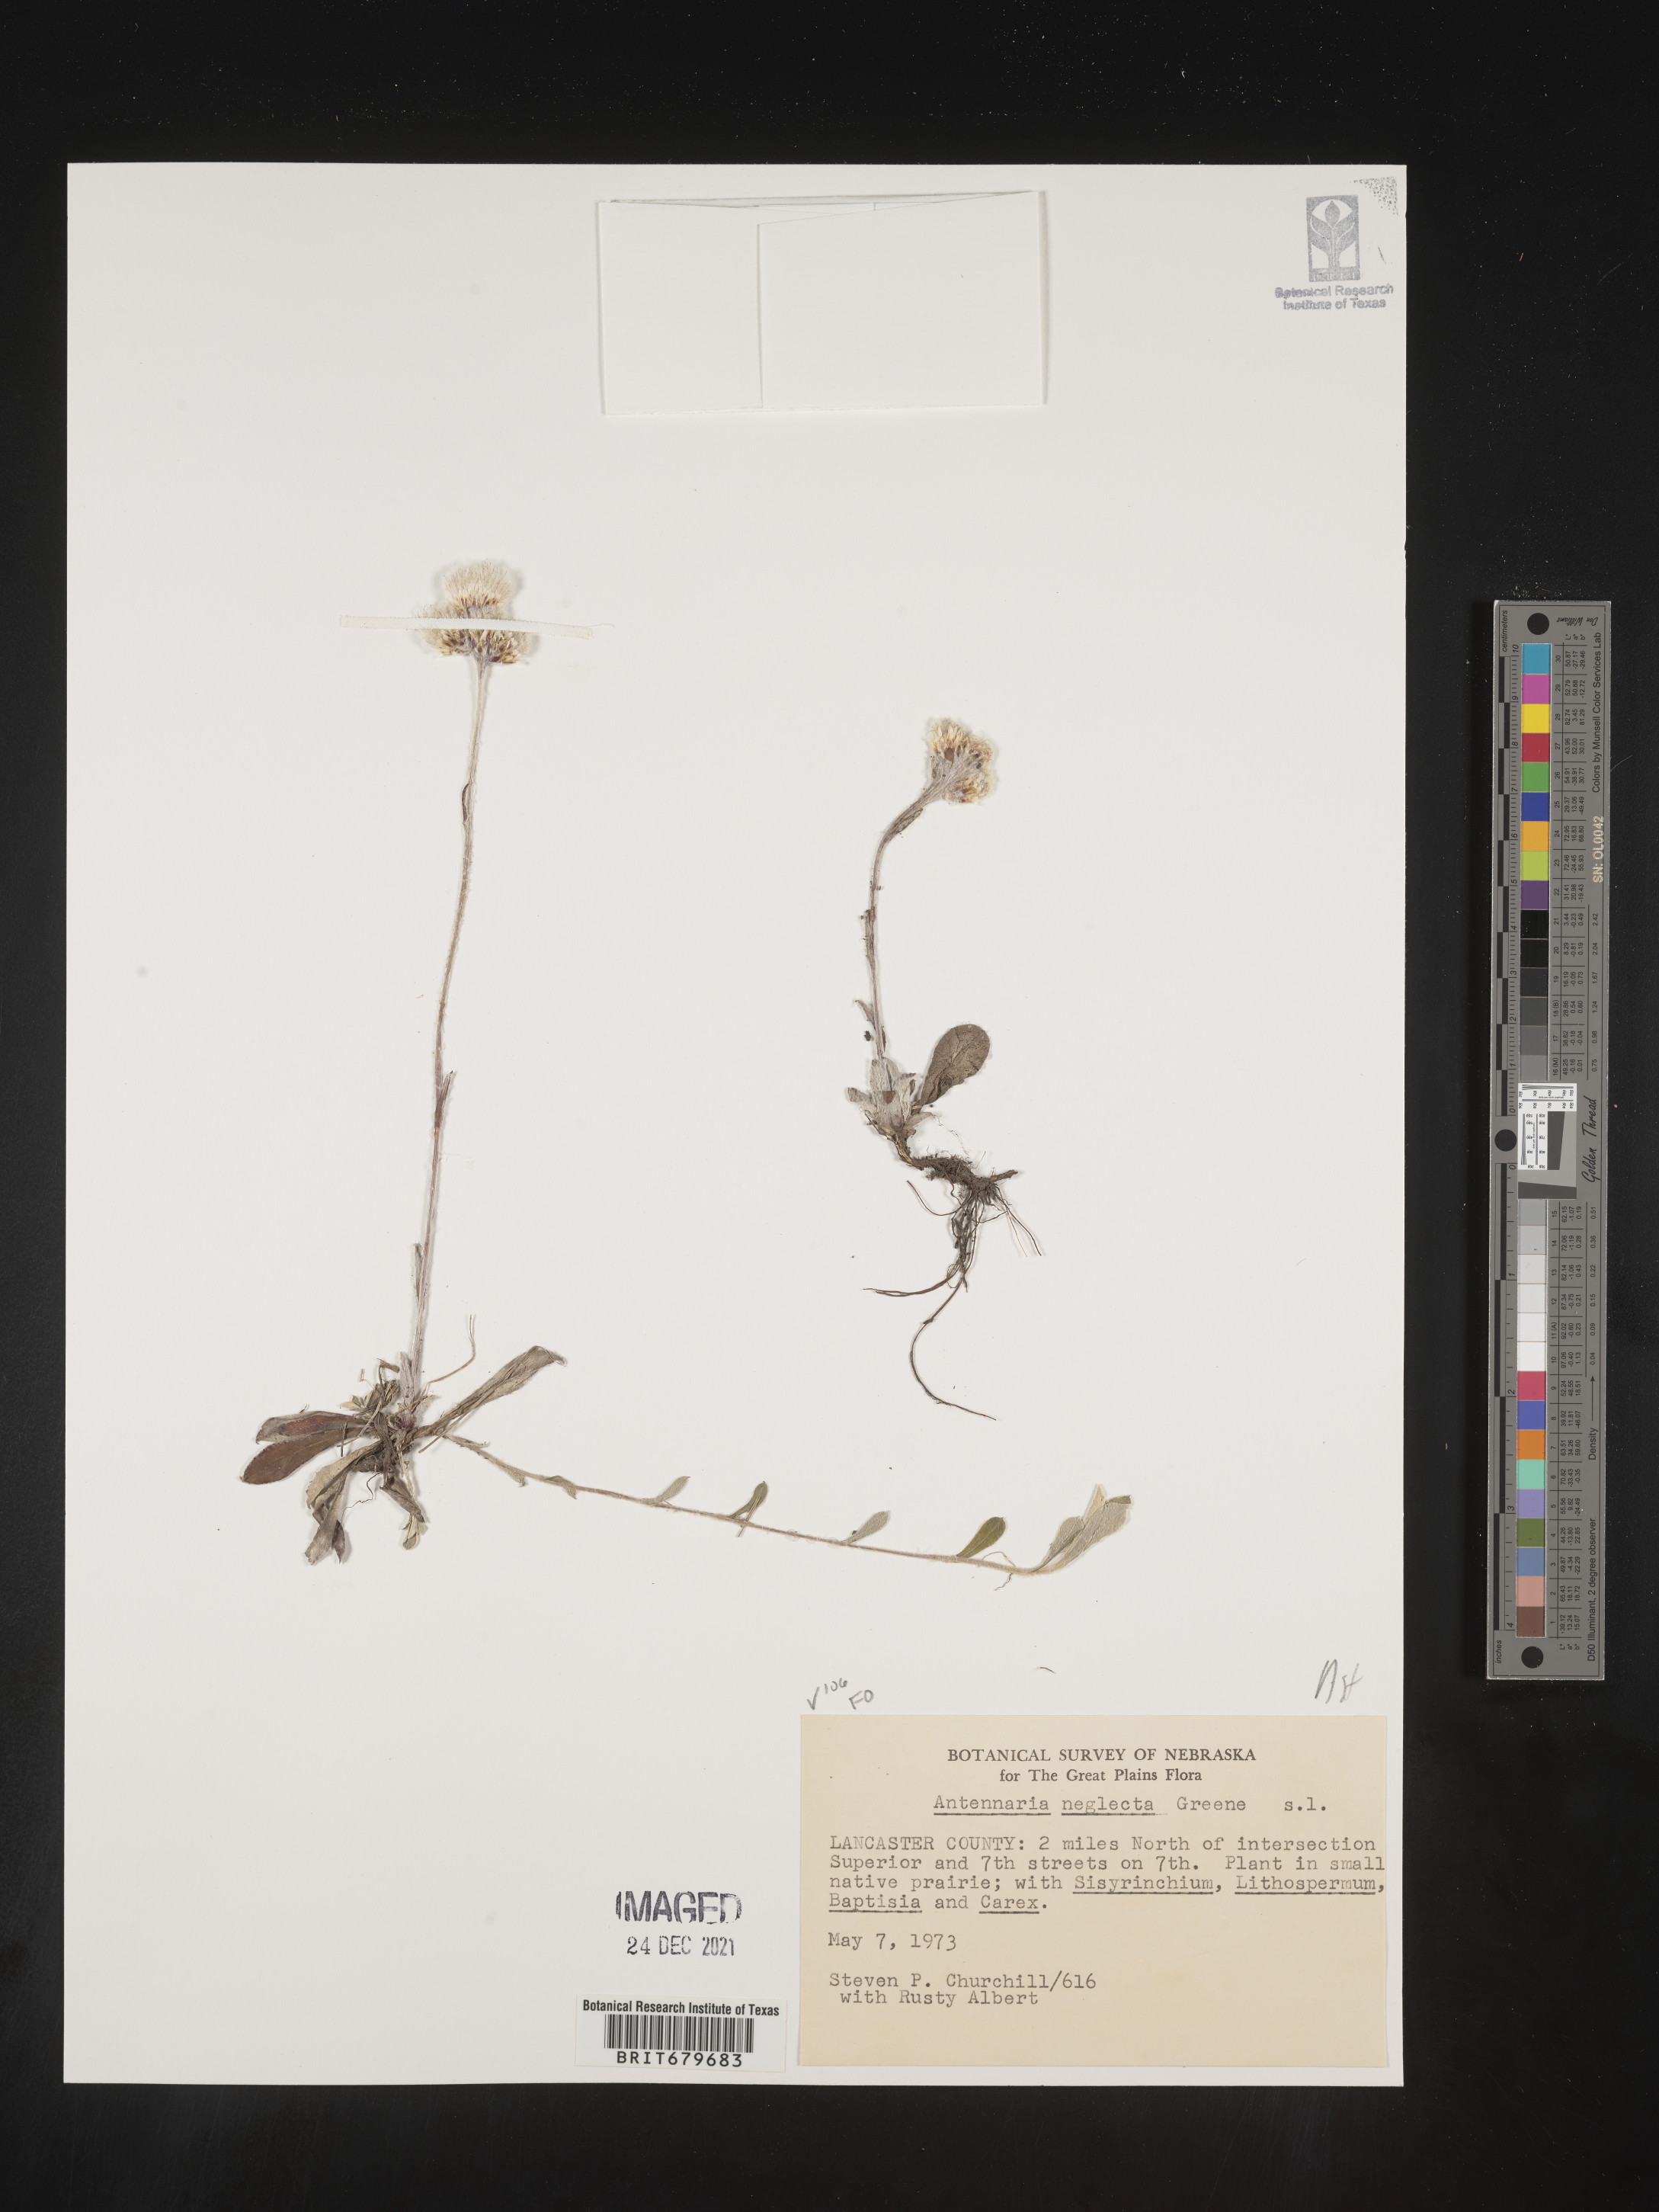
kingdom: Plantae
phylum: Tracheophyta
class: Magnoliopsida
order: Asterales
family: Asteraceae
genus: Antennaria
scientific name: Antennaria neglecta
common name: Field pussytoes
